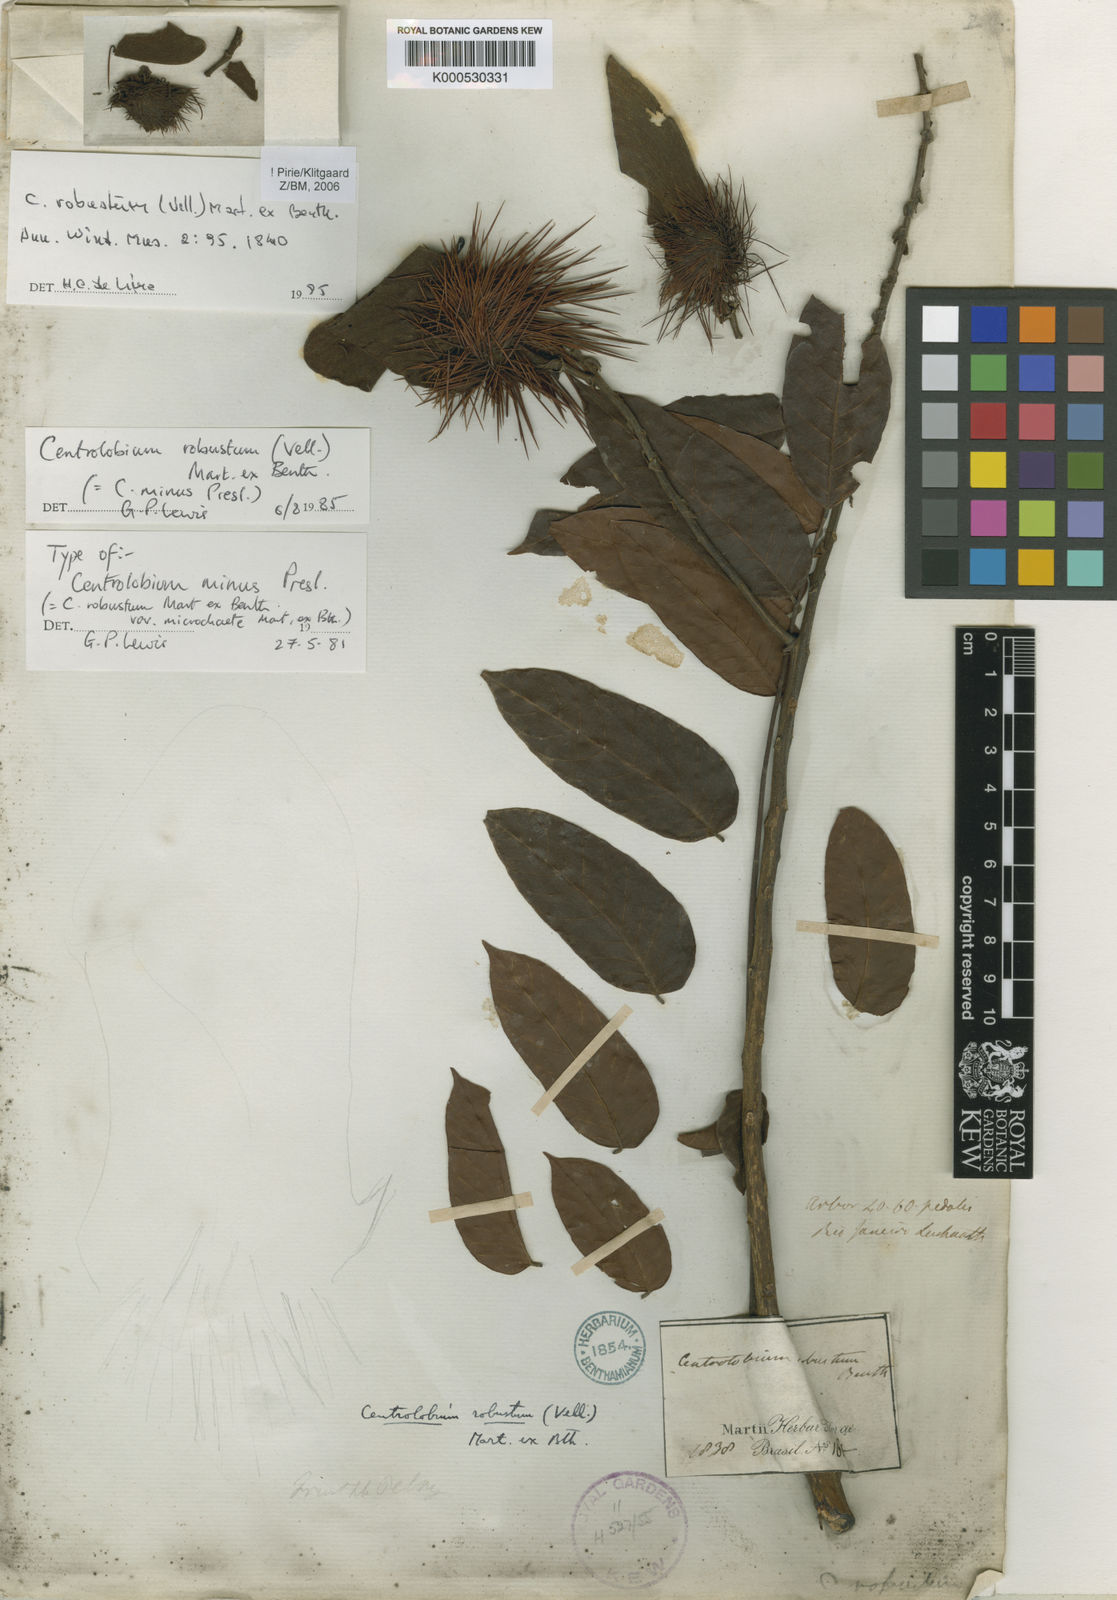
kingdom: Plantae
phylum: Tracheophyta
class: Magnoliopsida
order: Fabales
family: Fabaceae
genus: Centrolobium
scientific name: Centrolobium robustum
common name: Zebrawood
